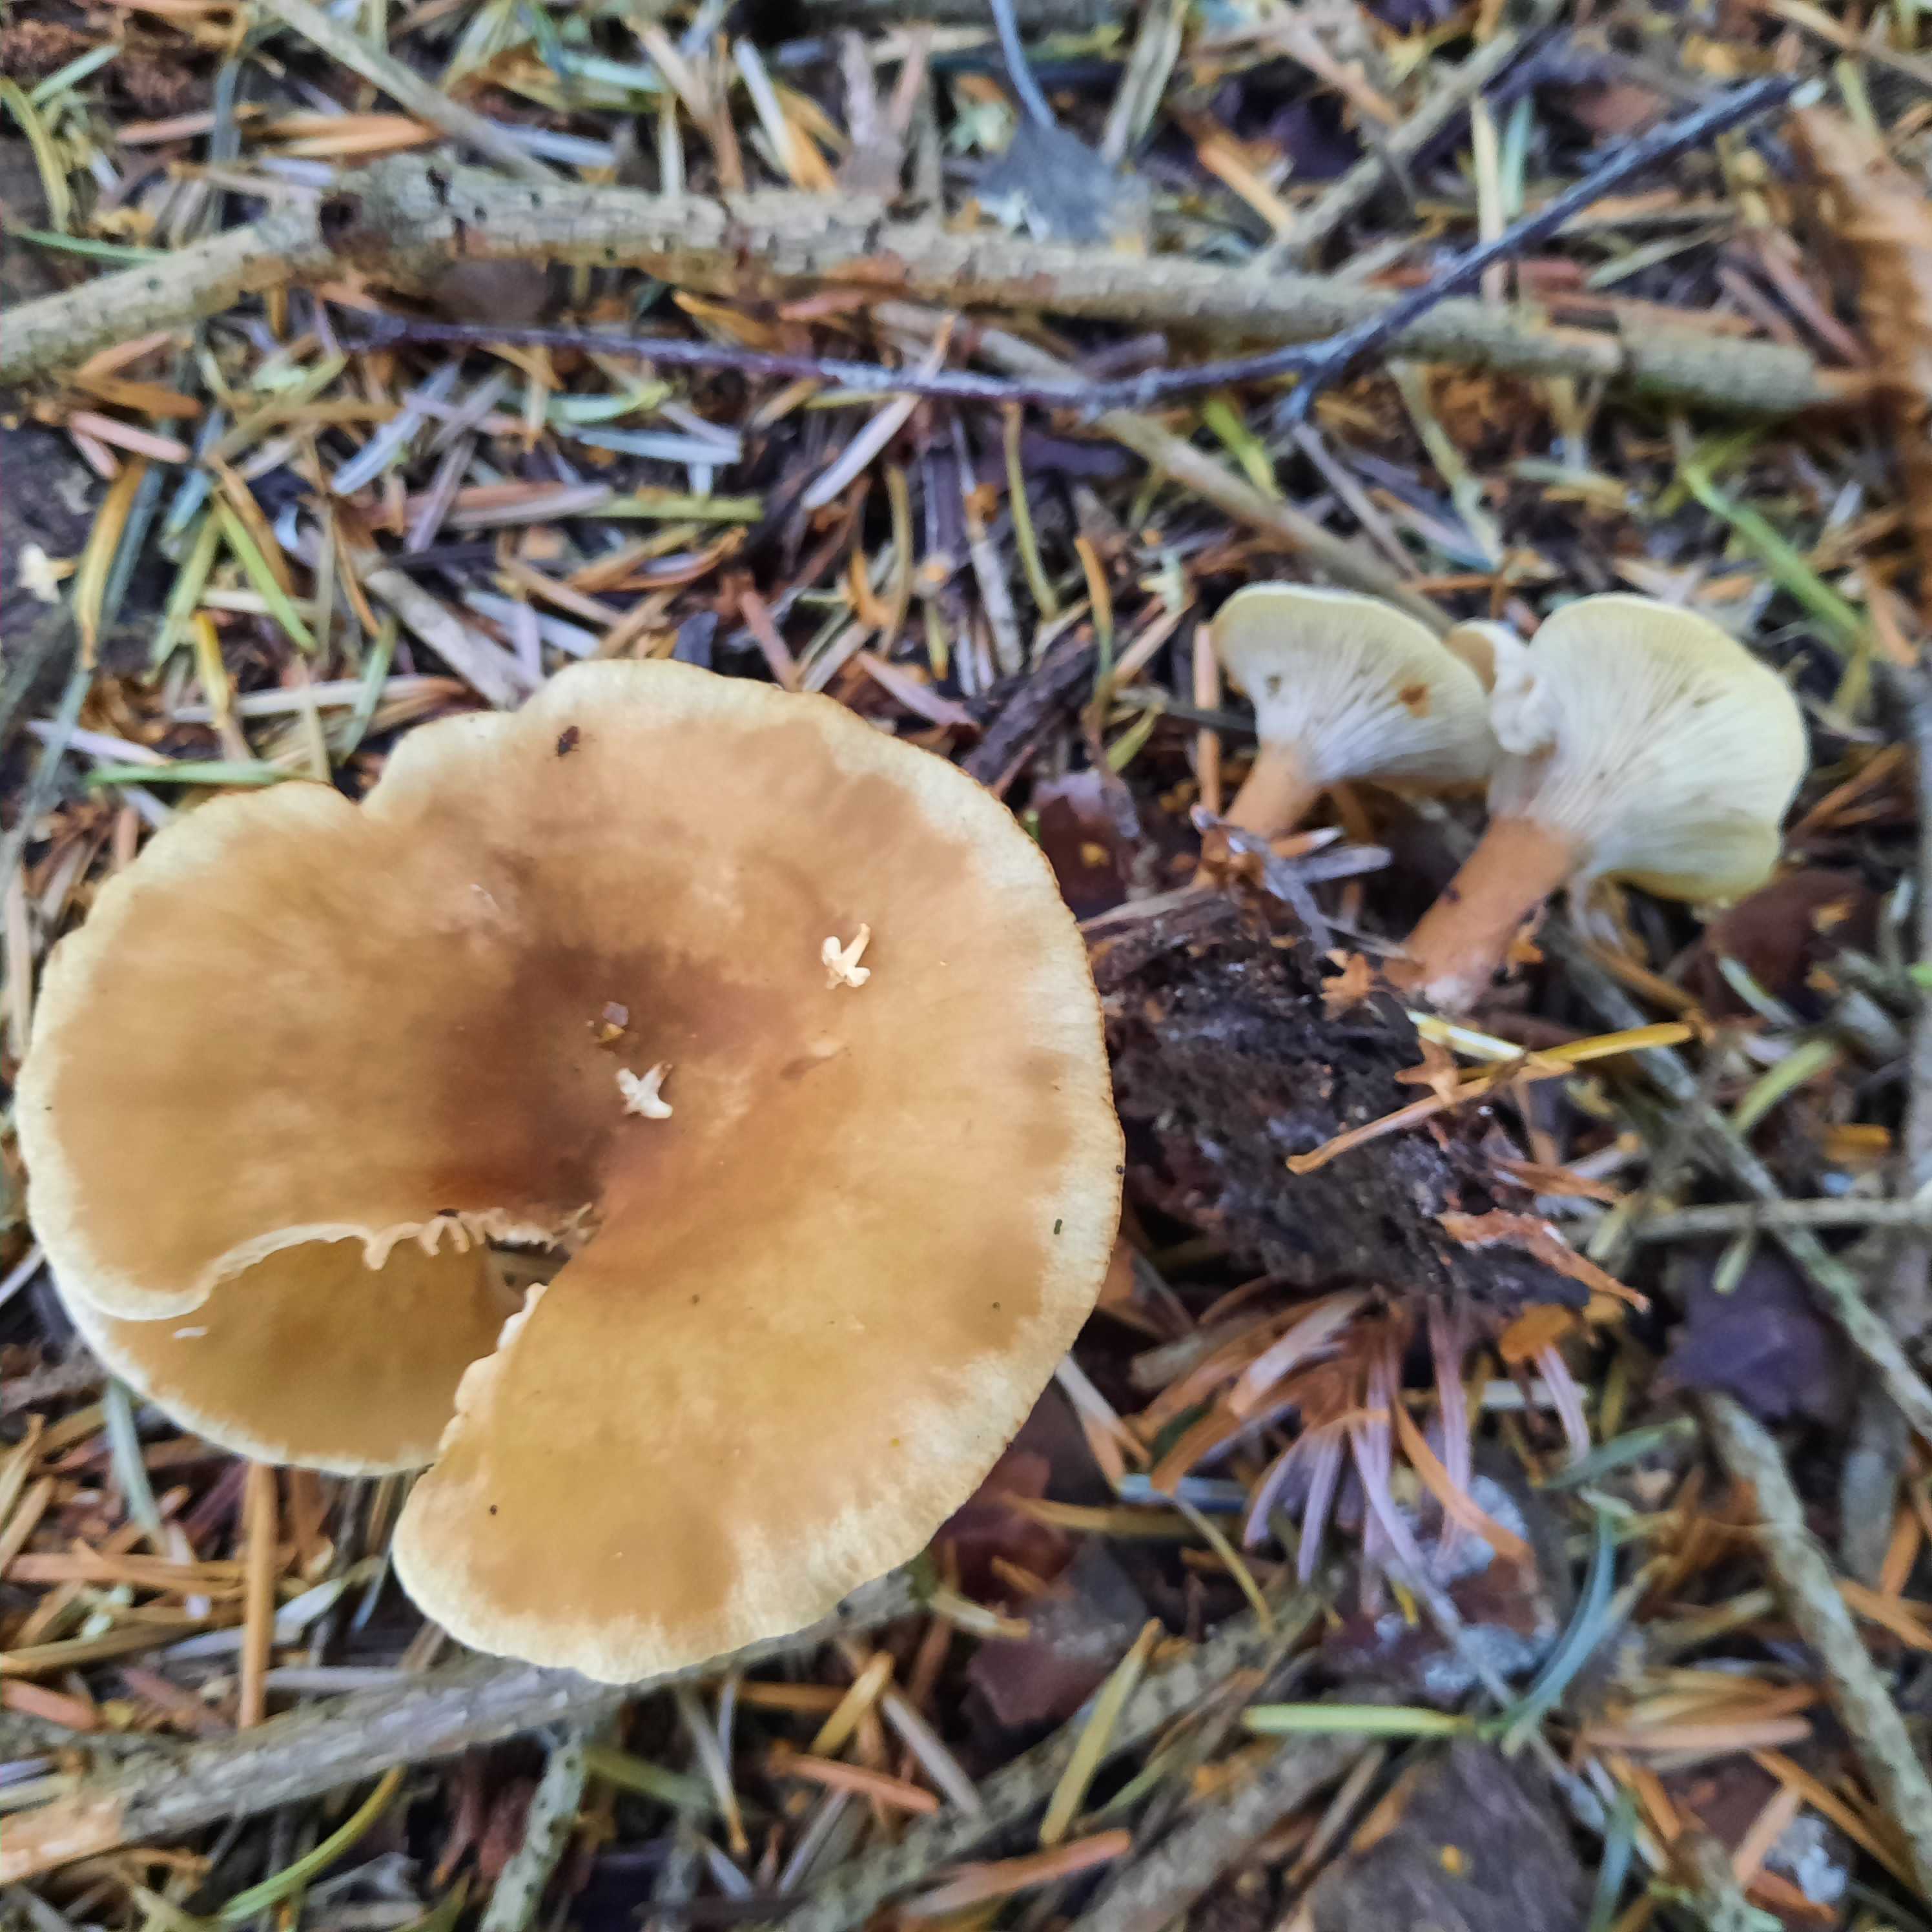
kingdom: Fungi
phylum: Basidiomycota
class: Agaricomycetes
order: Agaricales
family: Tricholomataceae
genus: Infundibulicybe
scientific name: Infundibulicybe
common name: tragthat
